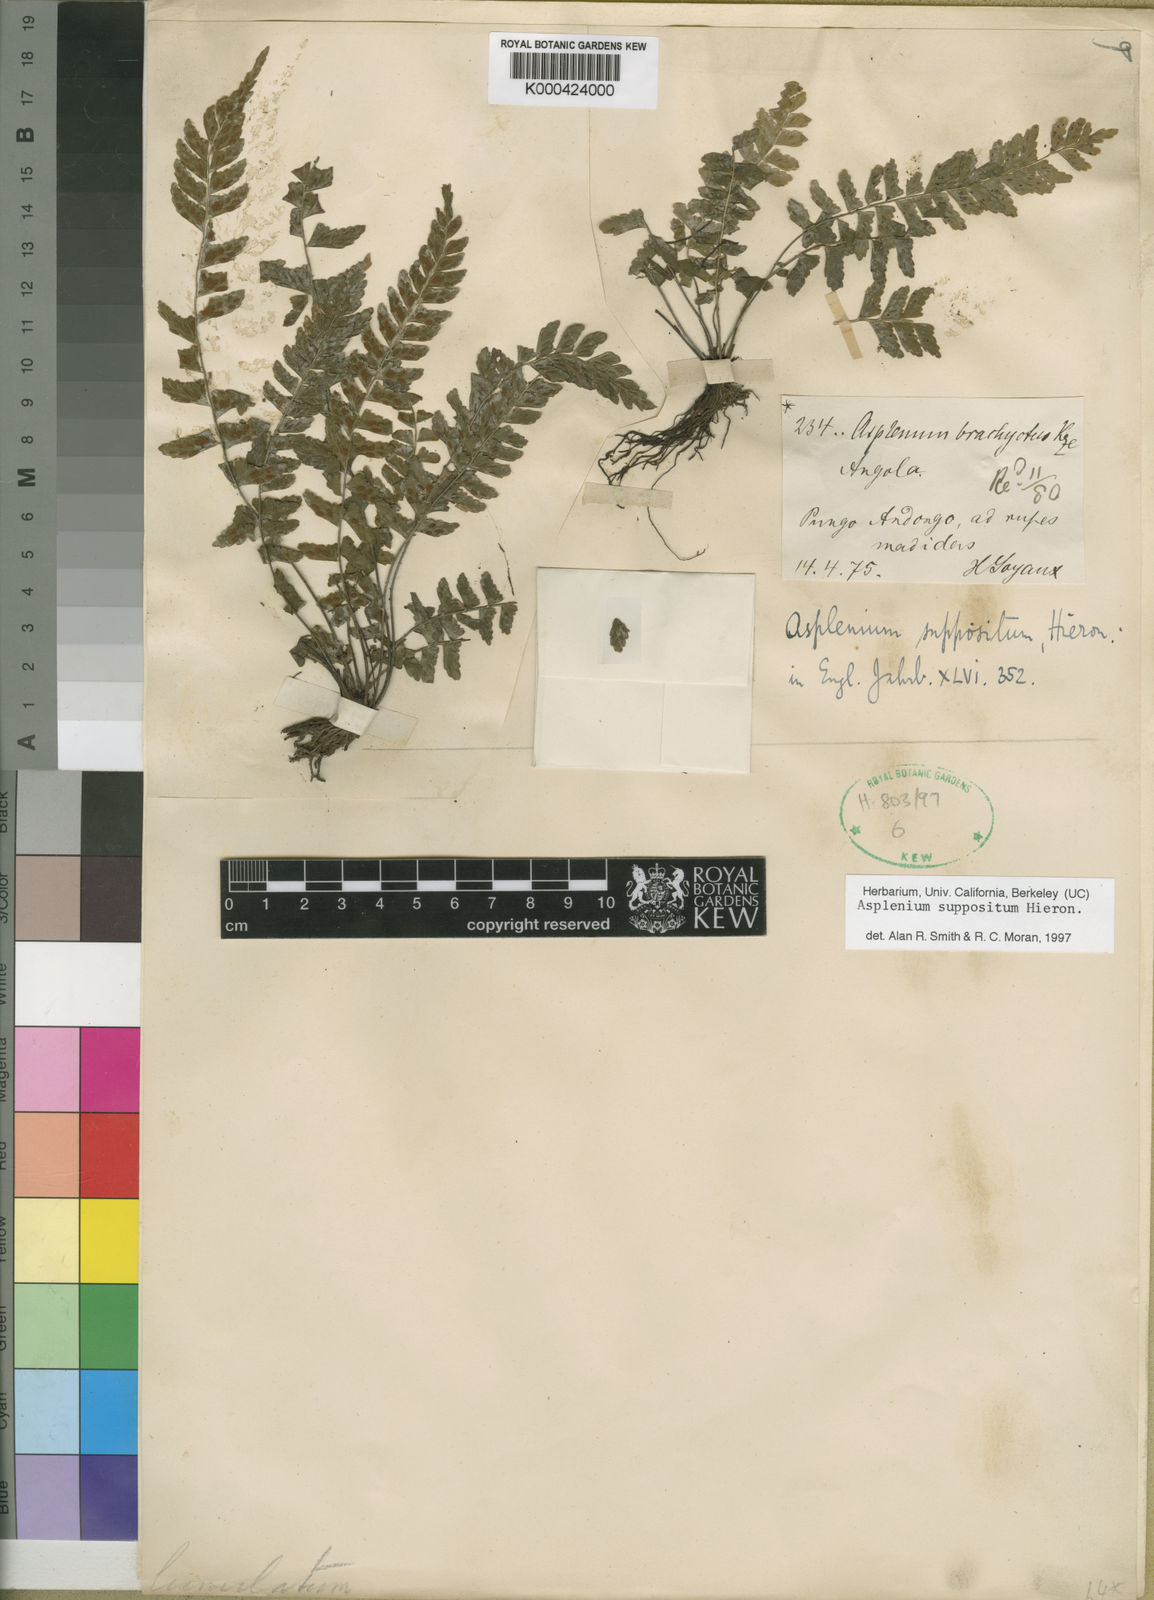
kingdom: Plantae
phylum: Tracheophyta
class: Polypodiopsida
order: Polypodiales
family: Aspleniaceae
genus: Asplenium
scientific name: Asplenium inaequilaterale
